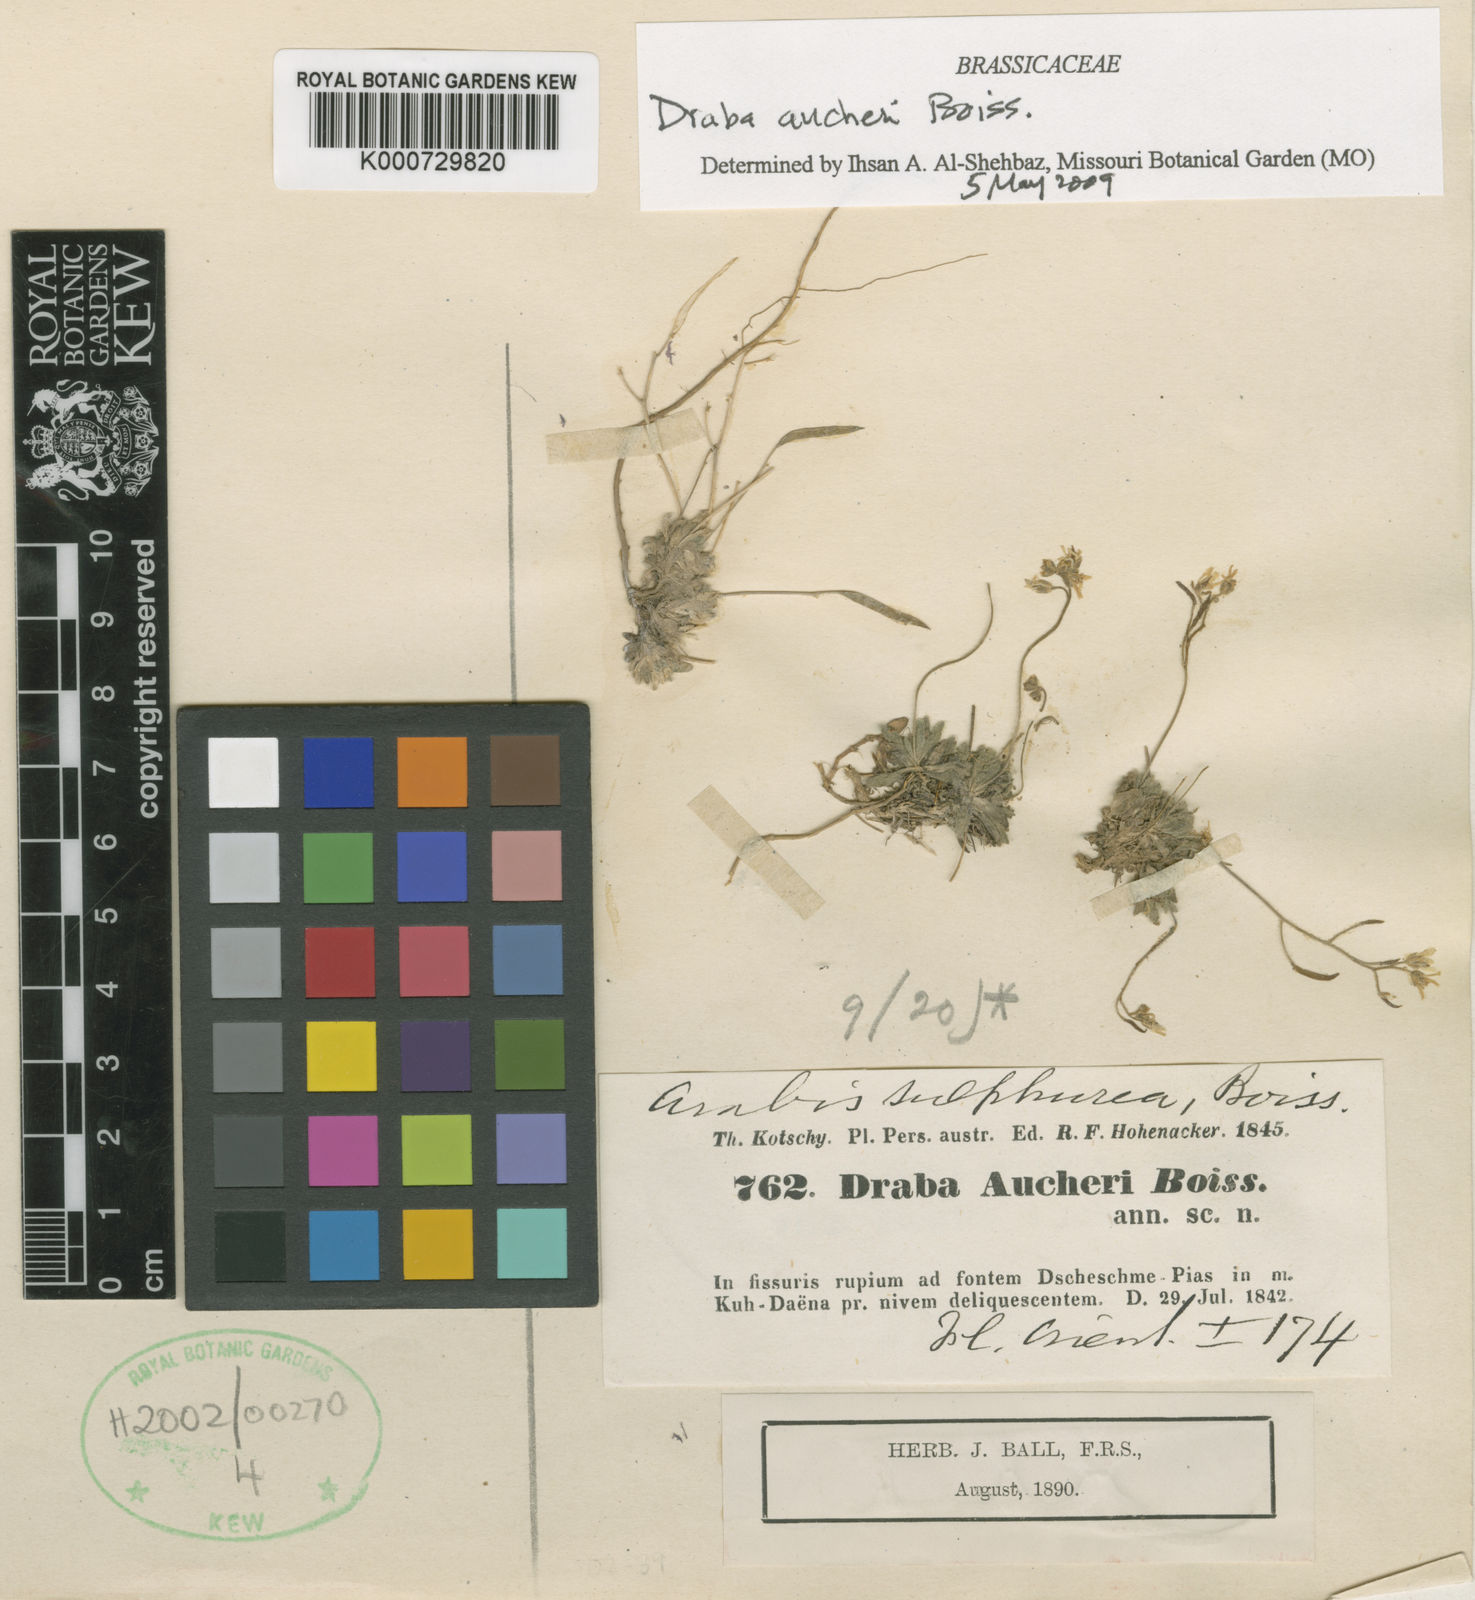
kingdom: Plantae
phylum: Tracheophyta
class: Magnoliopsida
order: Brassicales
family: Brassicaceae
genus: Draba
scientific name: Draba aucheri
